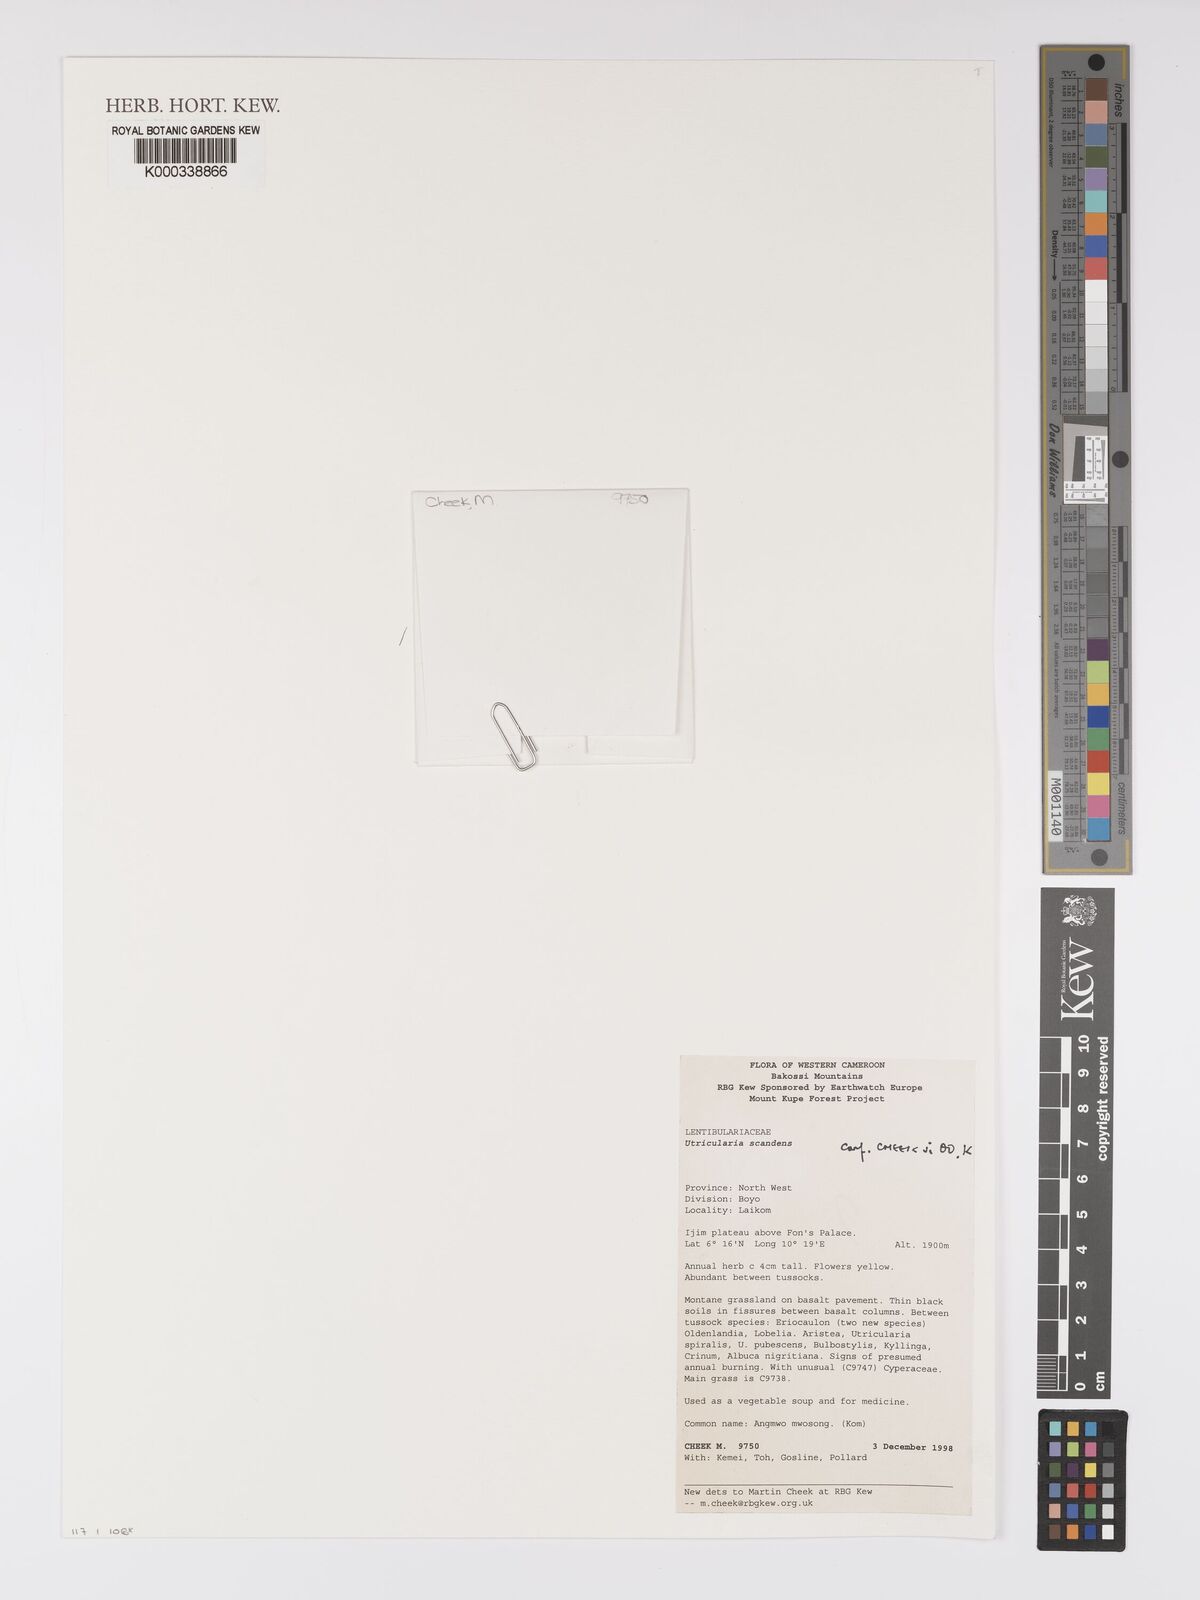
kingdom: Plantae
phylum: Tracheophyta
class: Magnoliopsida
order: Lamiales
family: Lentibulariaceae
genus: Utricularia
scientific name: Utricularia scandens
